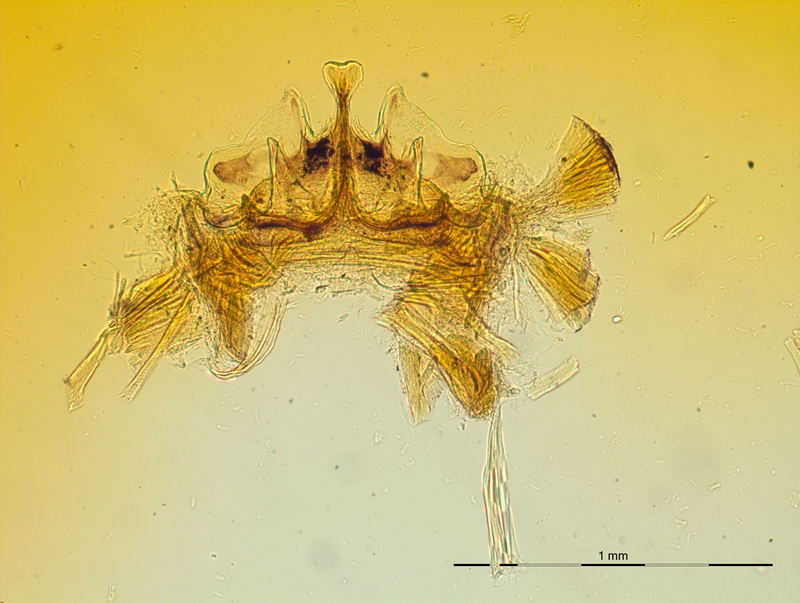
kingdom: Animalia
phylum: Arthropoda
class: Diplopoda
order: Chordeumatida
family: Craspedosomatidae
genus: Craspedosoma
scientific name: Craspedosoma transsilvanicum
